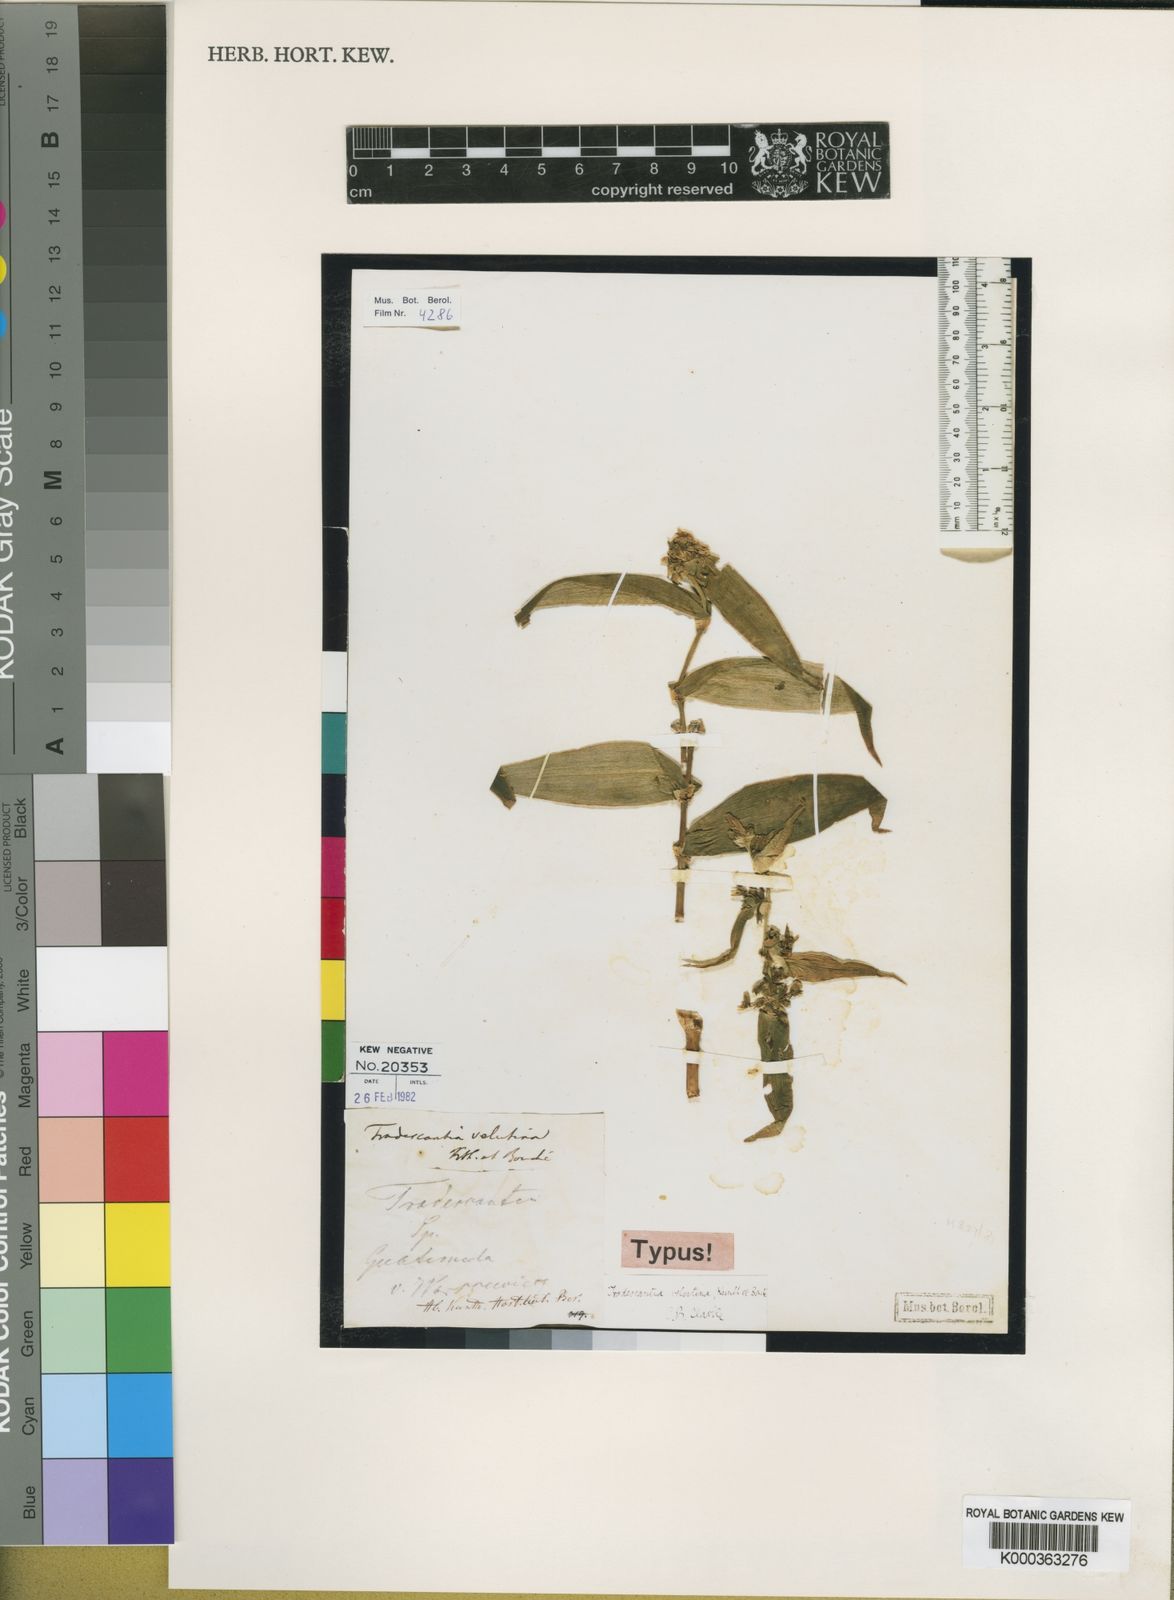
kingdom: Plantae
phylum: Tracheophyta
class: Liliopsida
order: Commelinales
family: Commelinaceae
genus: Tradescantia
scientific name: Tradescantia pallida
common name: Purpleheart
